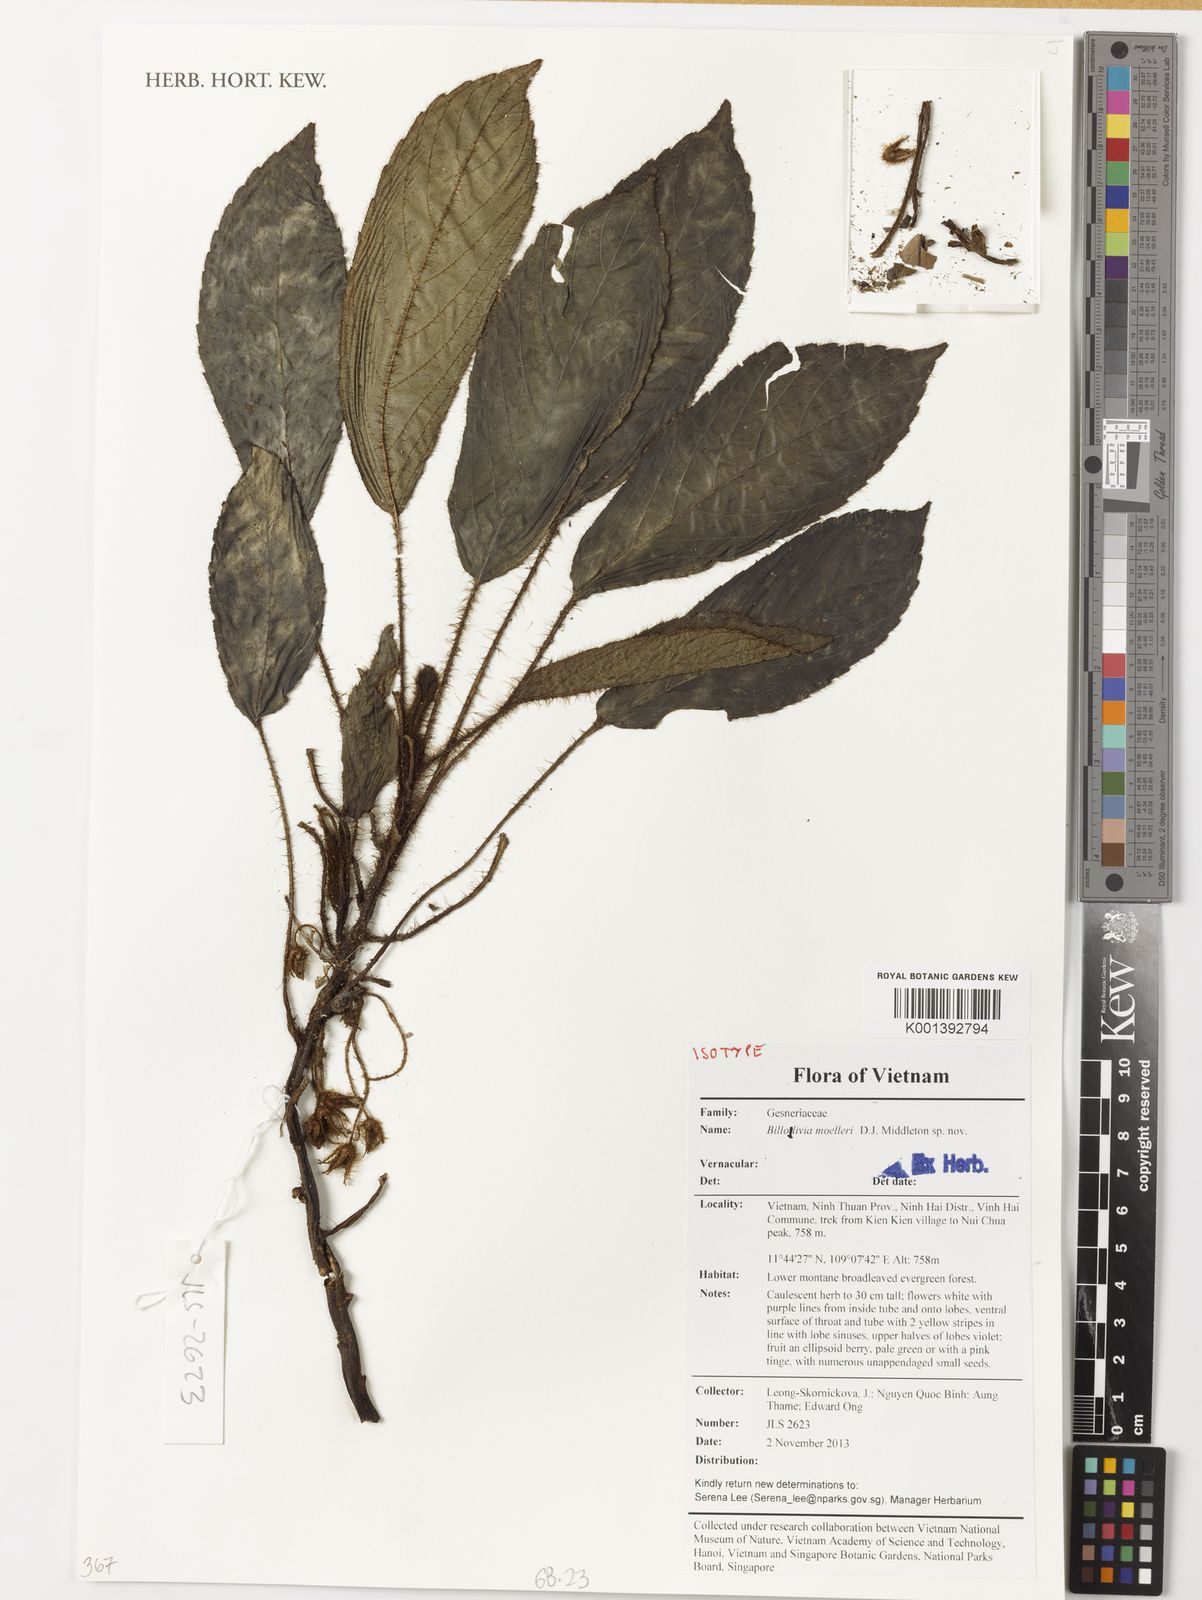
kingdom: Plantae
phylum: Tracheophyta
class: Magnoliopsida
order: Lamiales
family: Gesneriaceae
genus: Billolivia
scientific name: Billolivia moelleri
